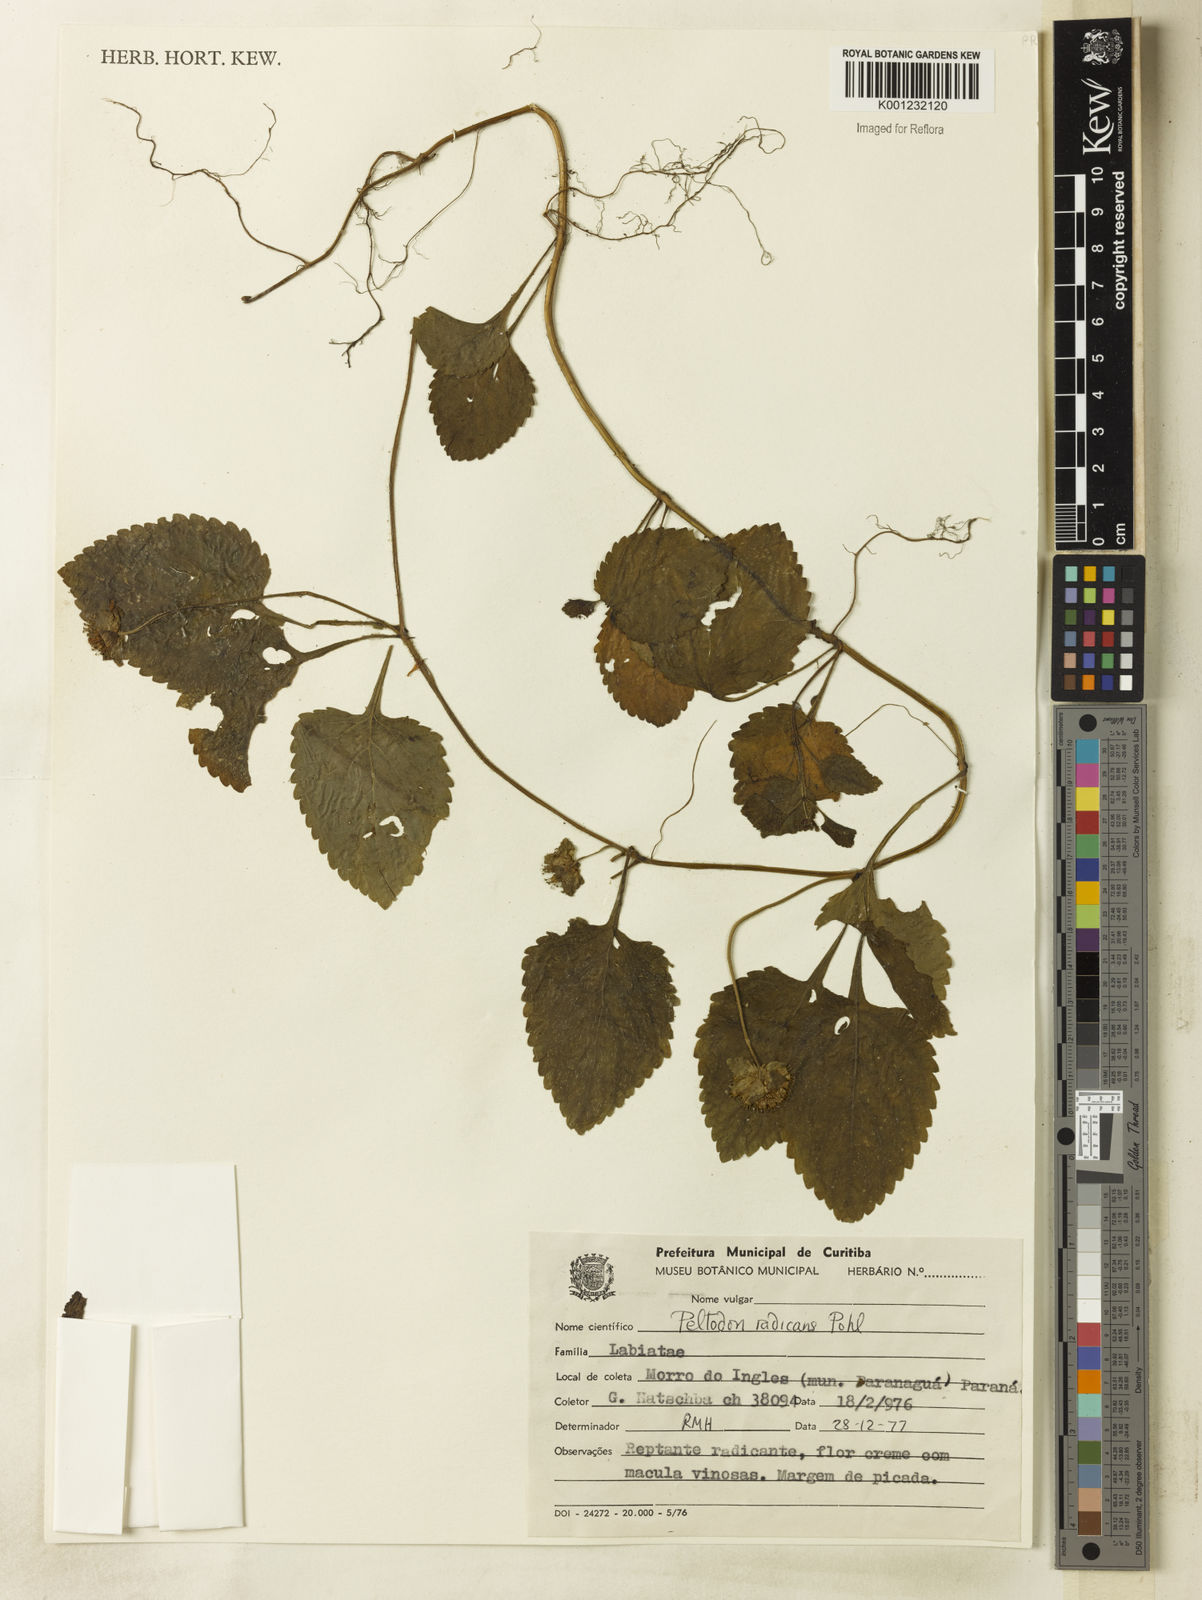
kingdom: Plantae
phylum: Tracheophyta
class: Magnoliopsida
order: Lamiales
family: Lamiaceae
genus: Hyptis
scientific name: Hyptis radicans
